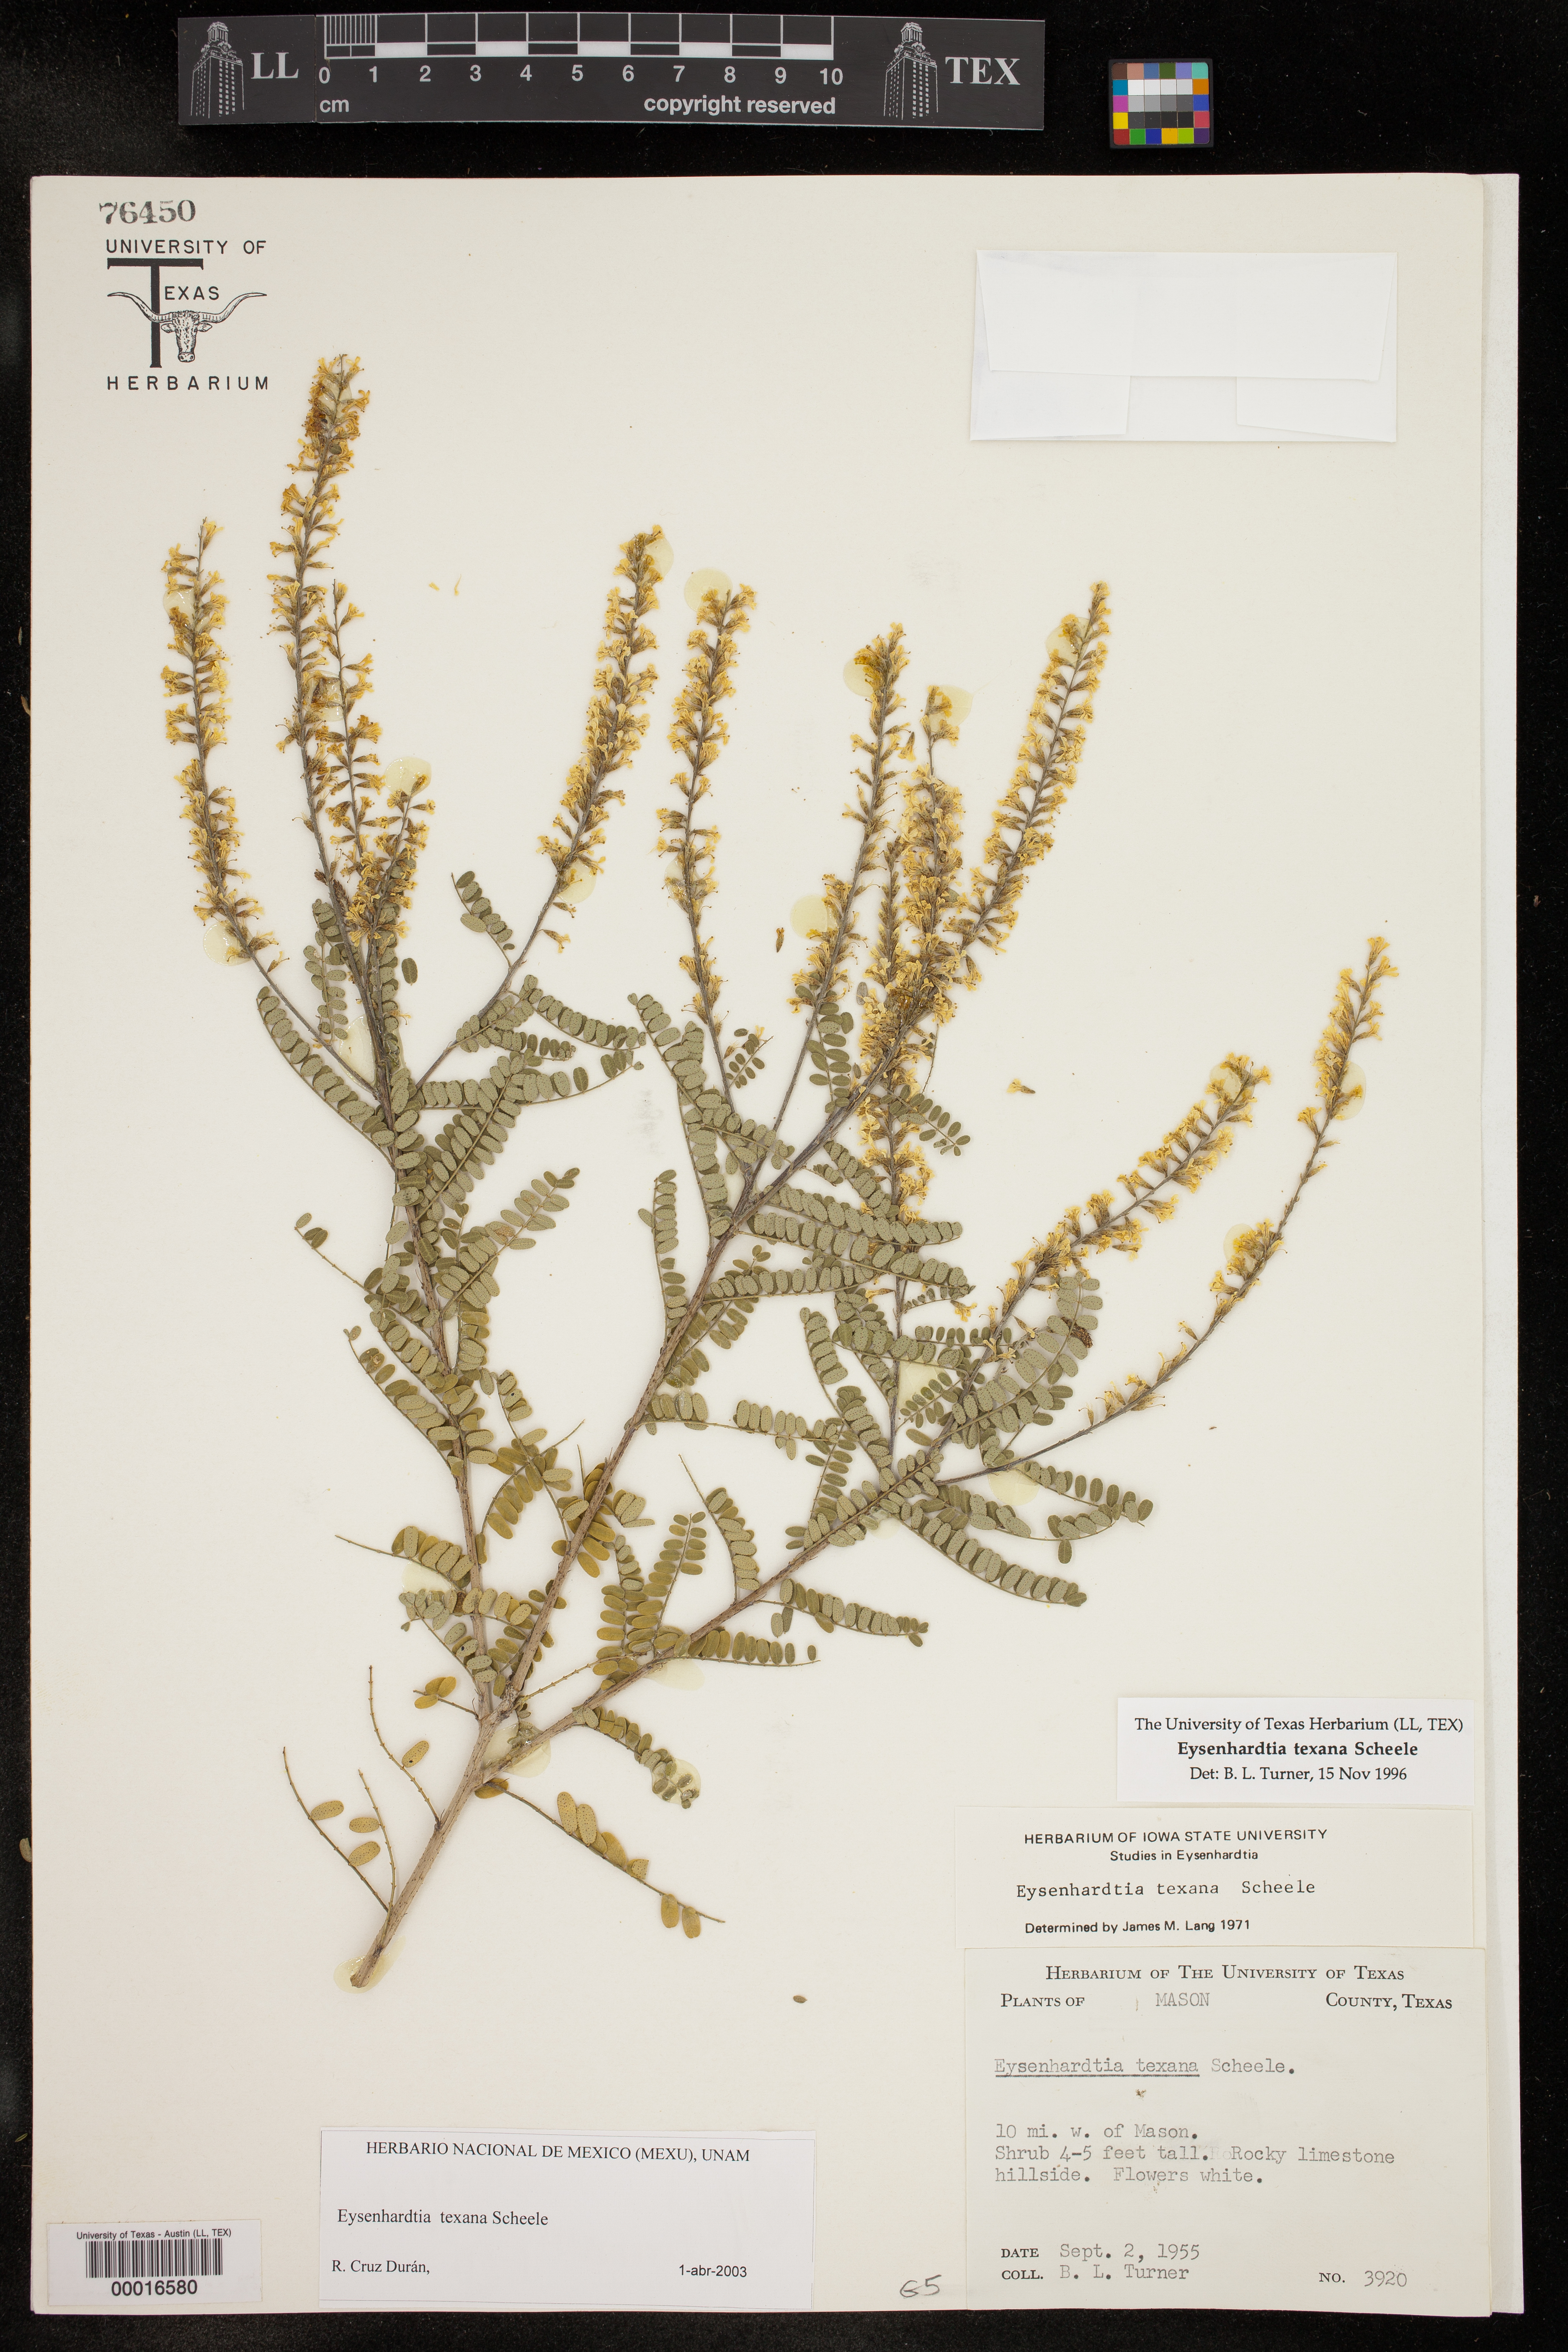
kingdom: Plantae
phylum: Tracheophyta
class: Magnoliopsida
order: Fabales
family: Fabaceae
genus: Eysenhardtia
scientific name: Eysenhardtia texana
